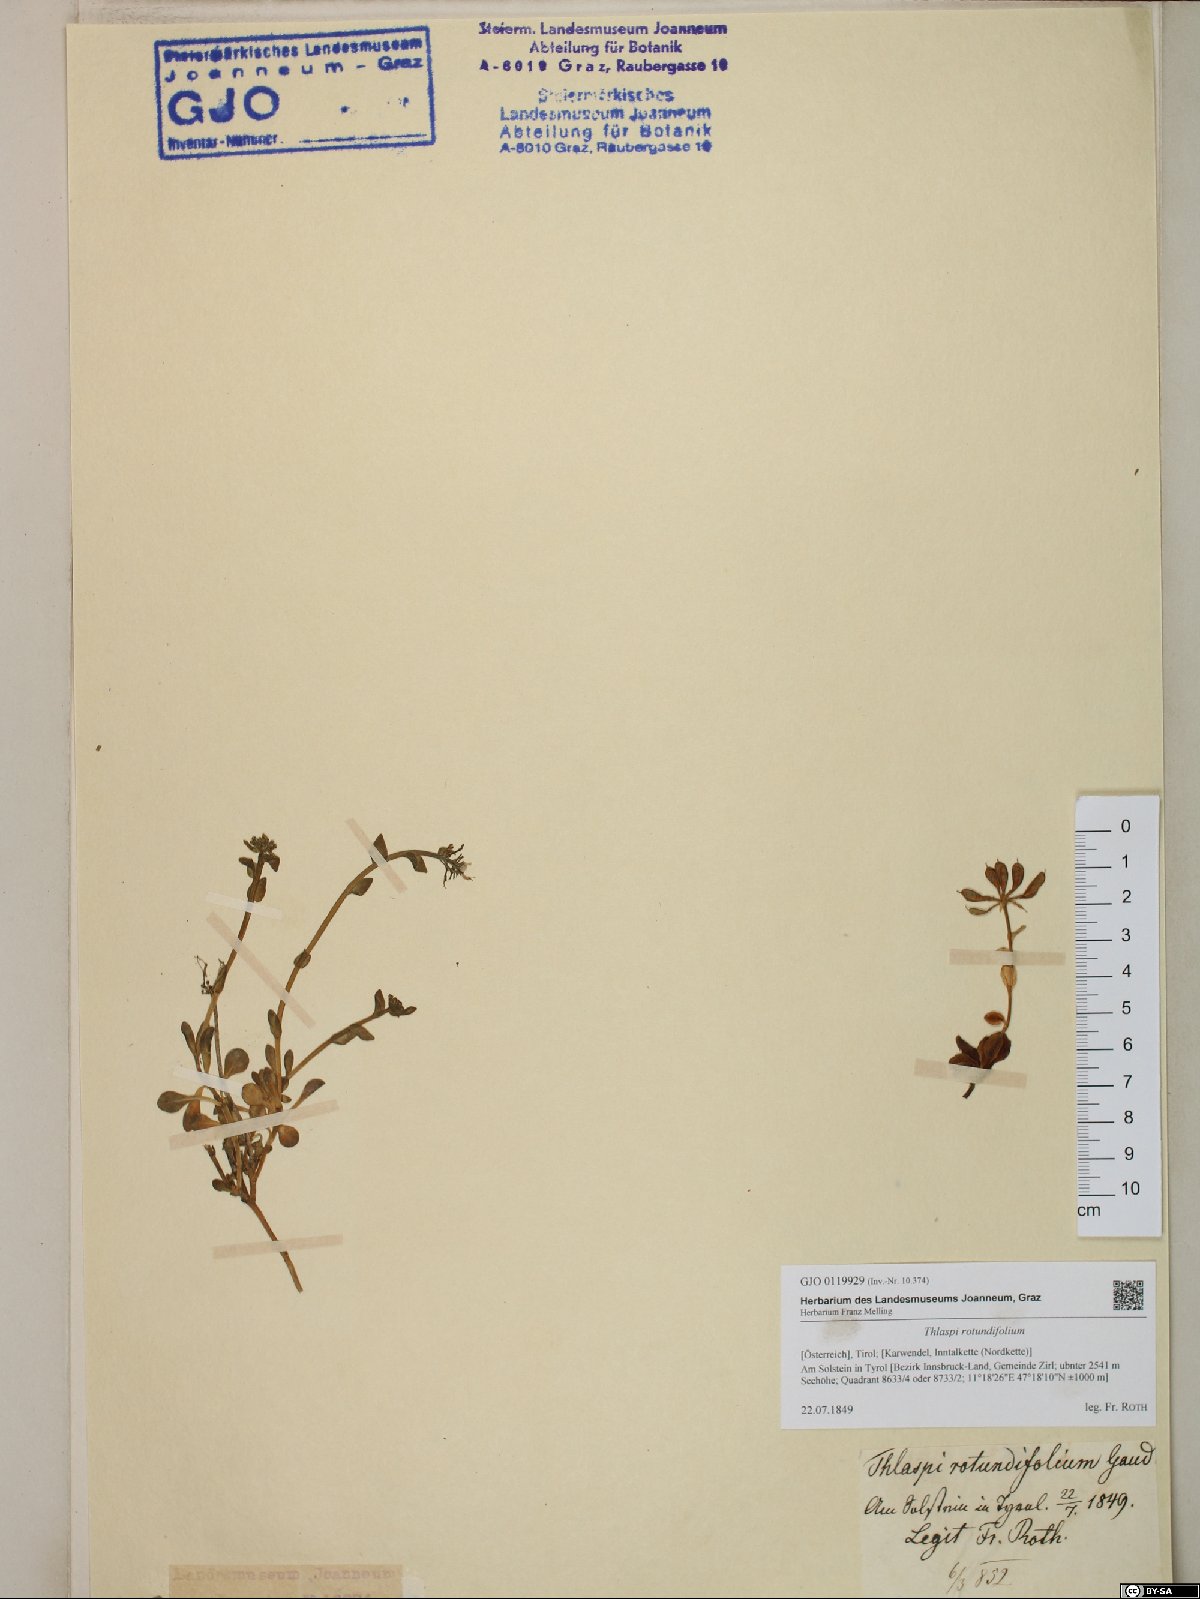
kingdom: Plantae
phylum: Tracheophyta
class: Magnoliopsida
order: Brassicales
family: Brassicaceae
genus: Noccaea
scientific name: Noccaea rotundifolia
